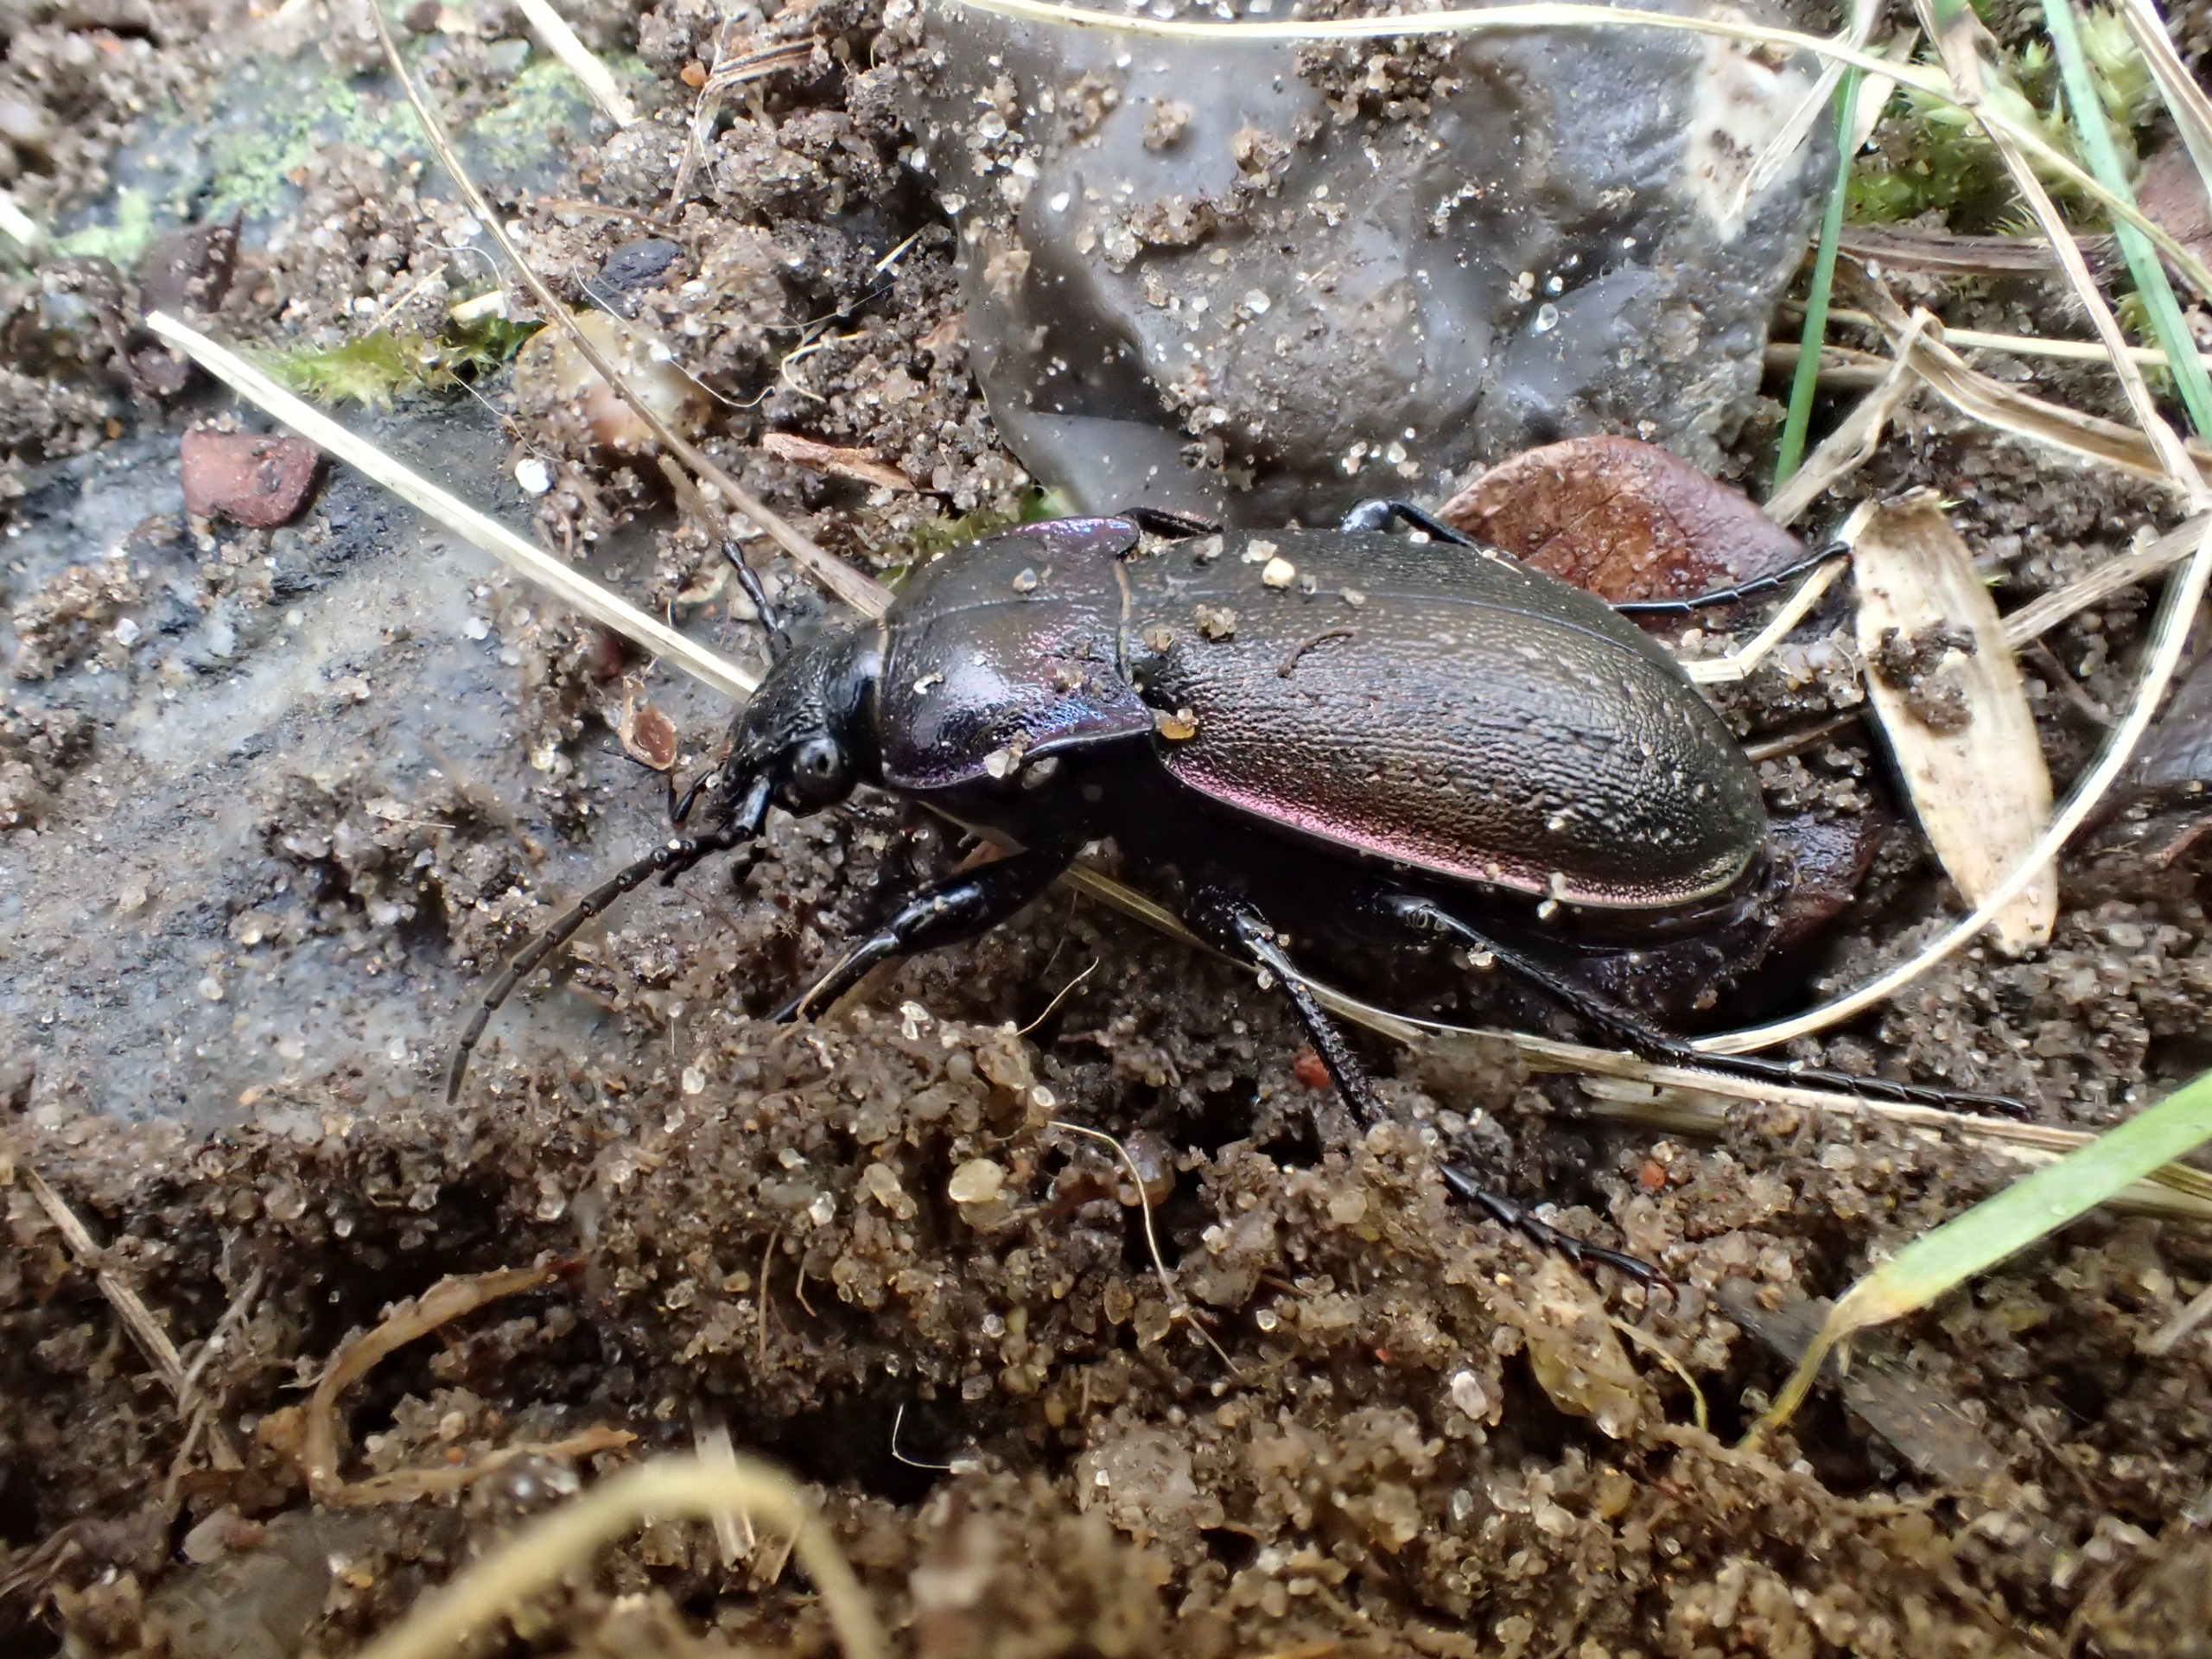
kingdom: Animalia
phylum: Arthropoda
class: Insecta
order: Coleoptera
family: Carabidae
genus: Carabus
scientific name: Carabus nemoralis
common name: Kratløber
